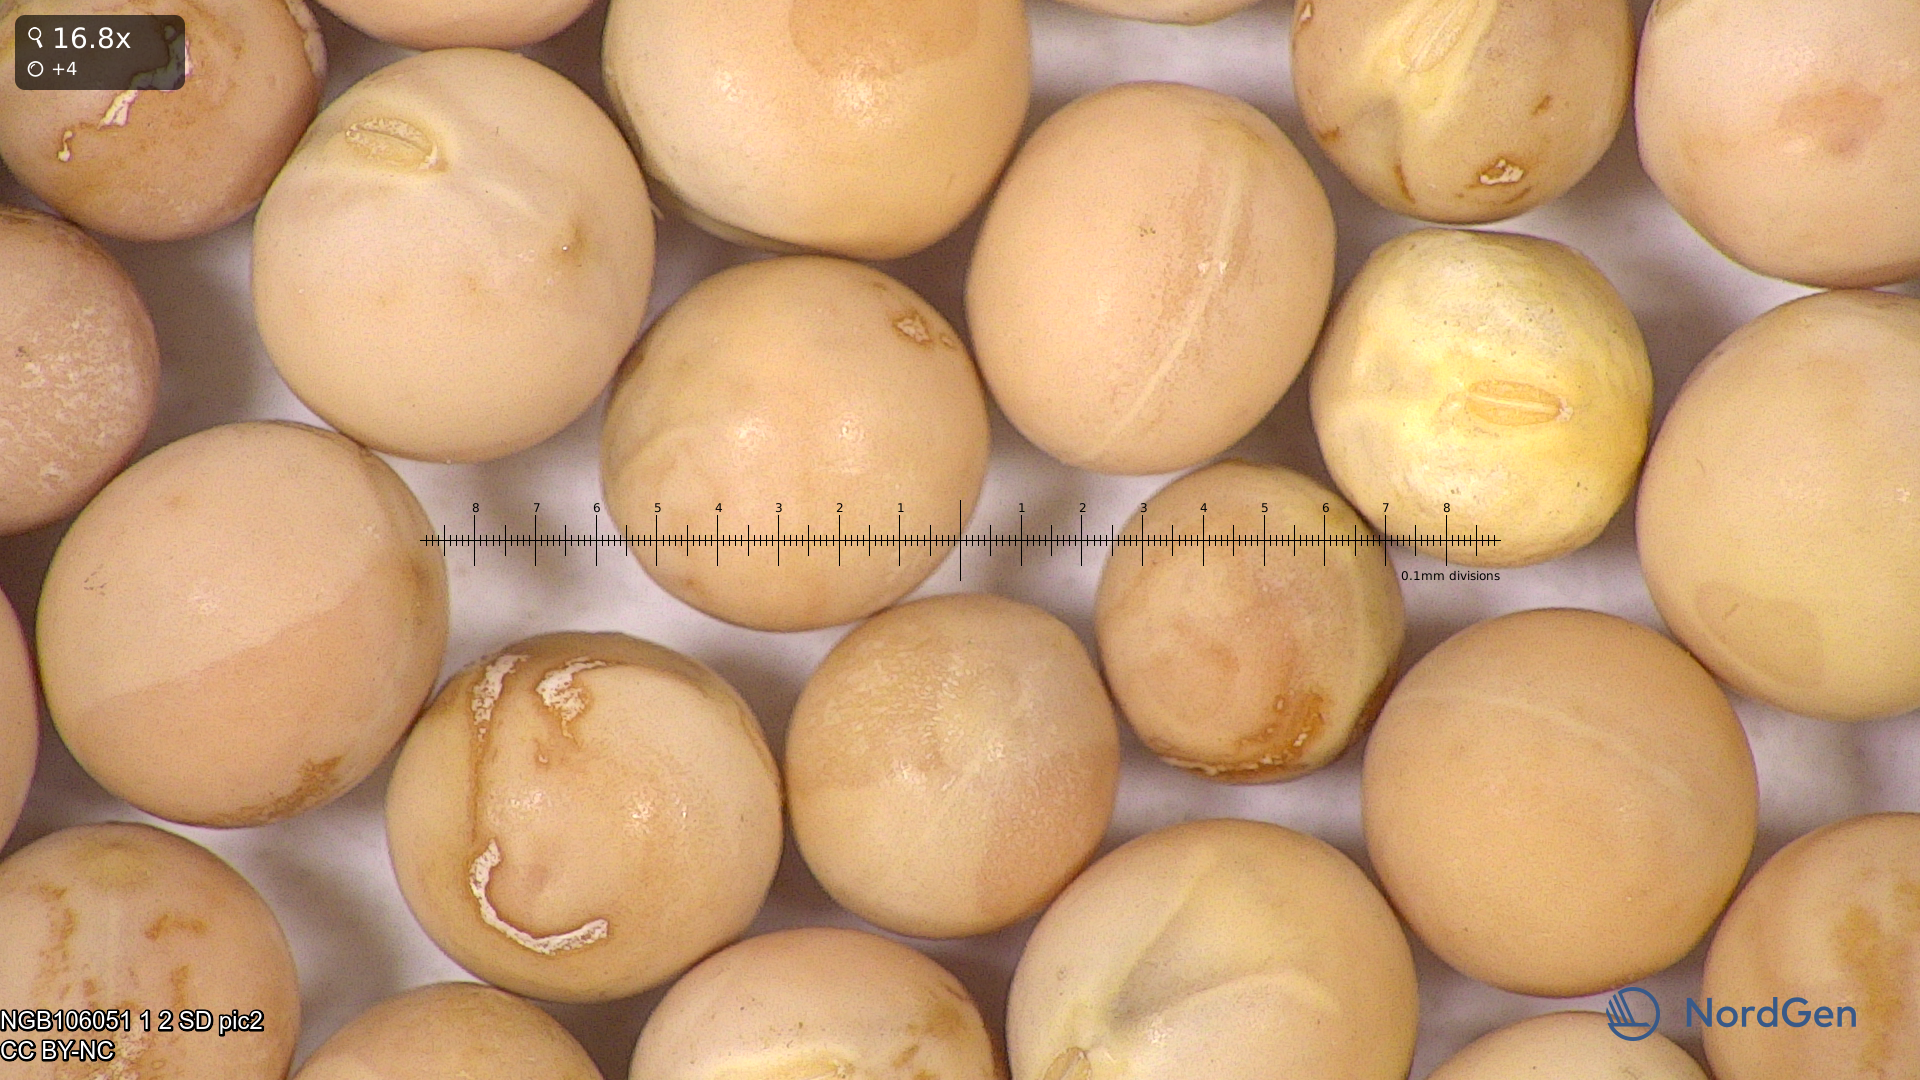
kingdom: Plantae
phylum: Tracheophyta
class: Magnoliopsida
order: Fabales
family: Fabaceae
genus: Lathyrus
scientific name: Lathyrus oleraceus
